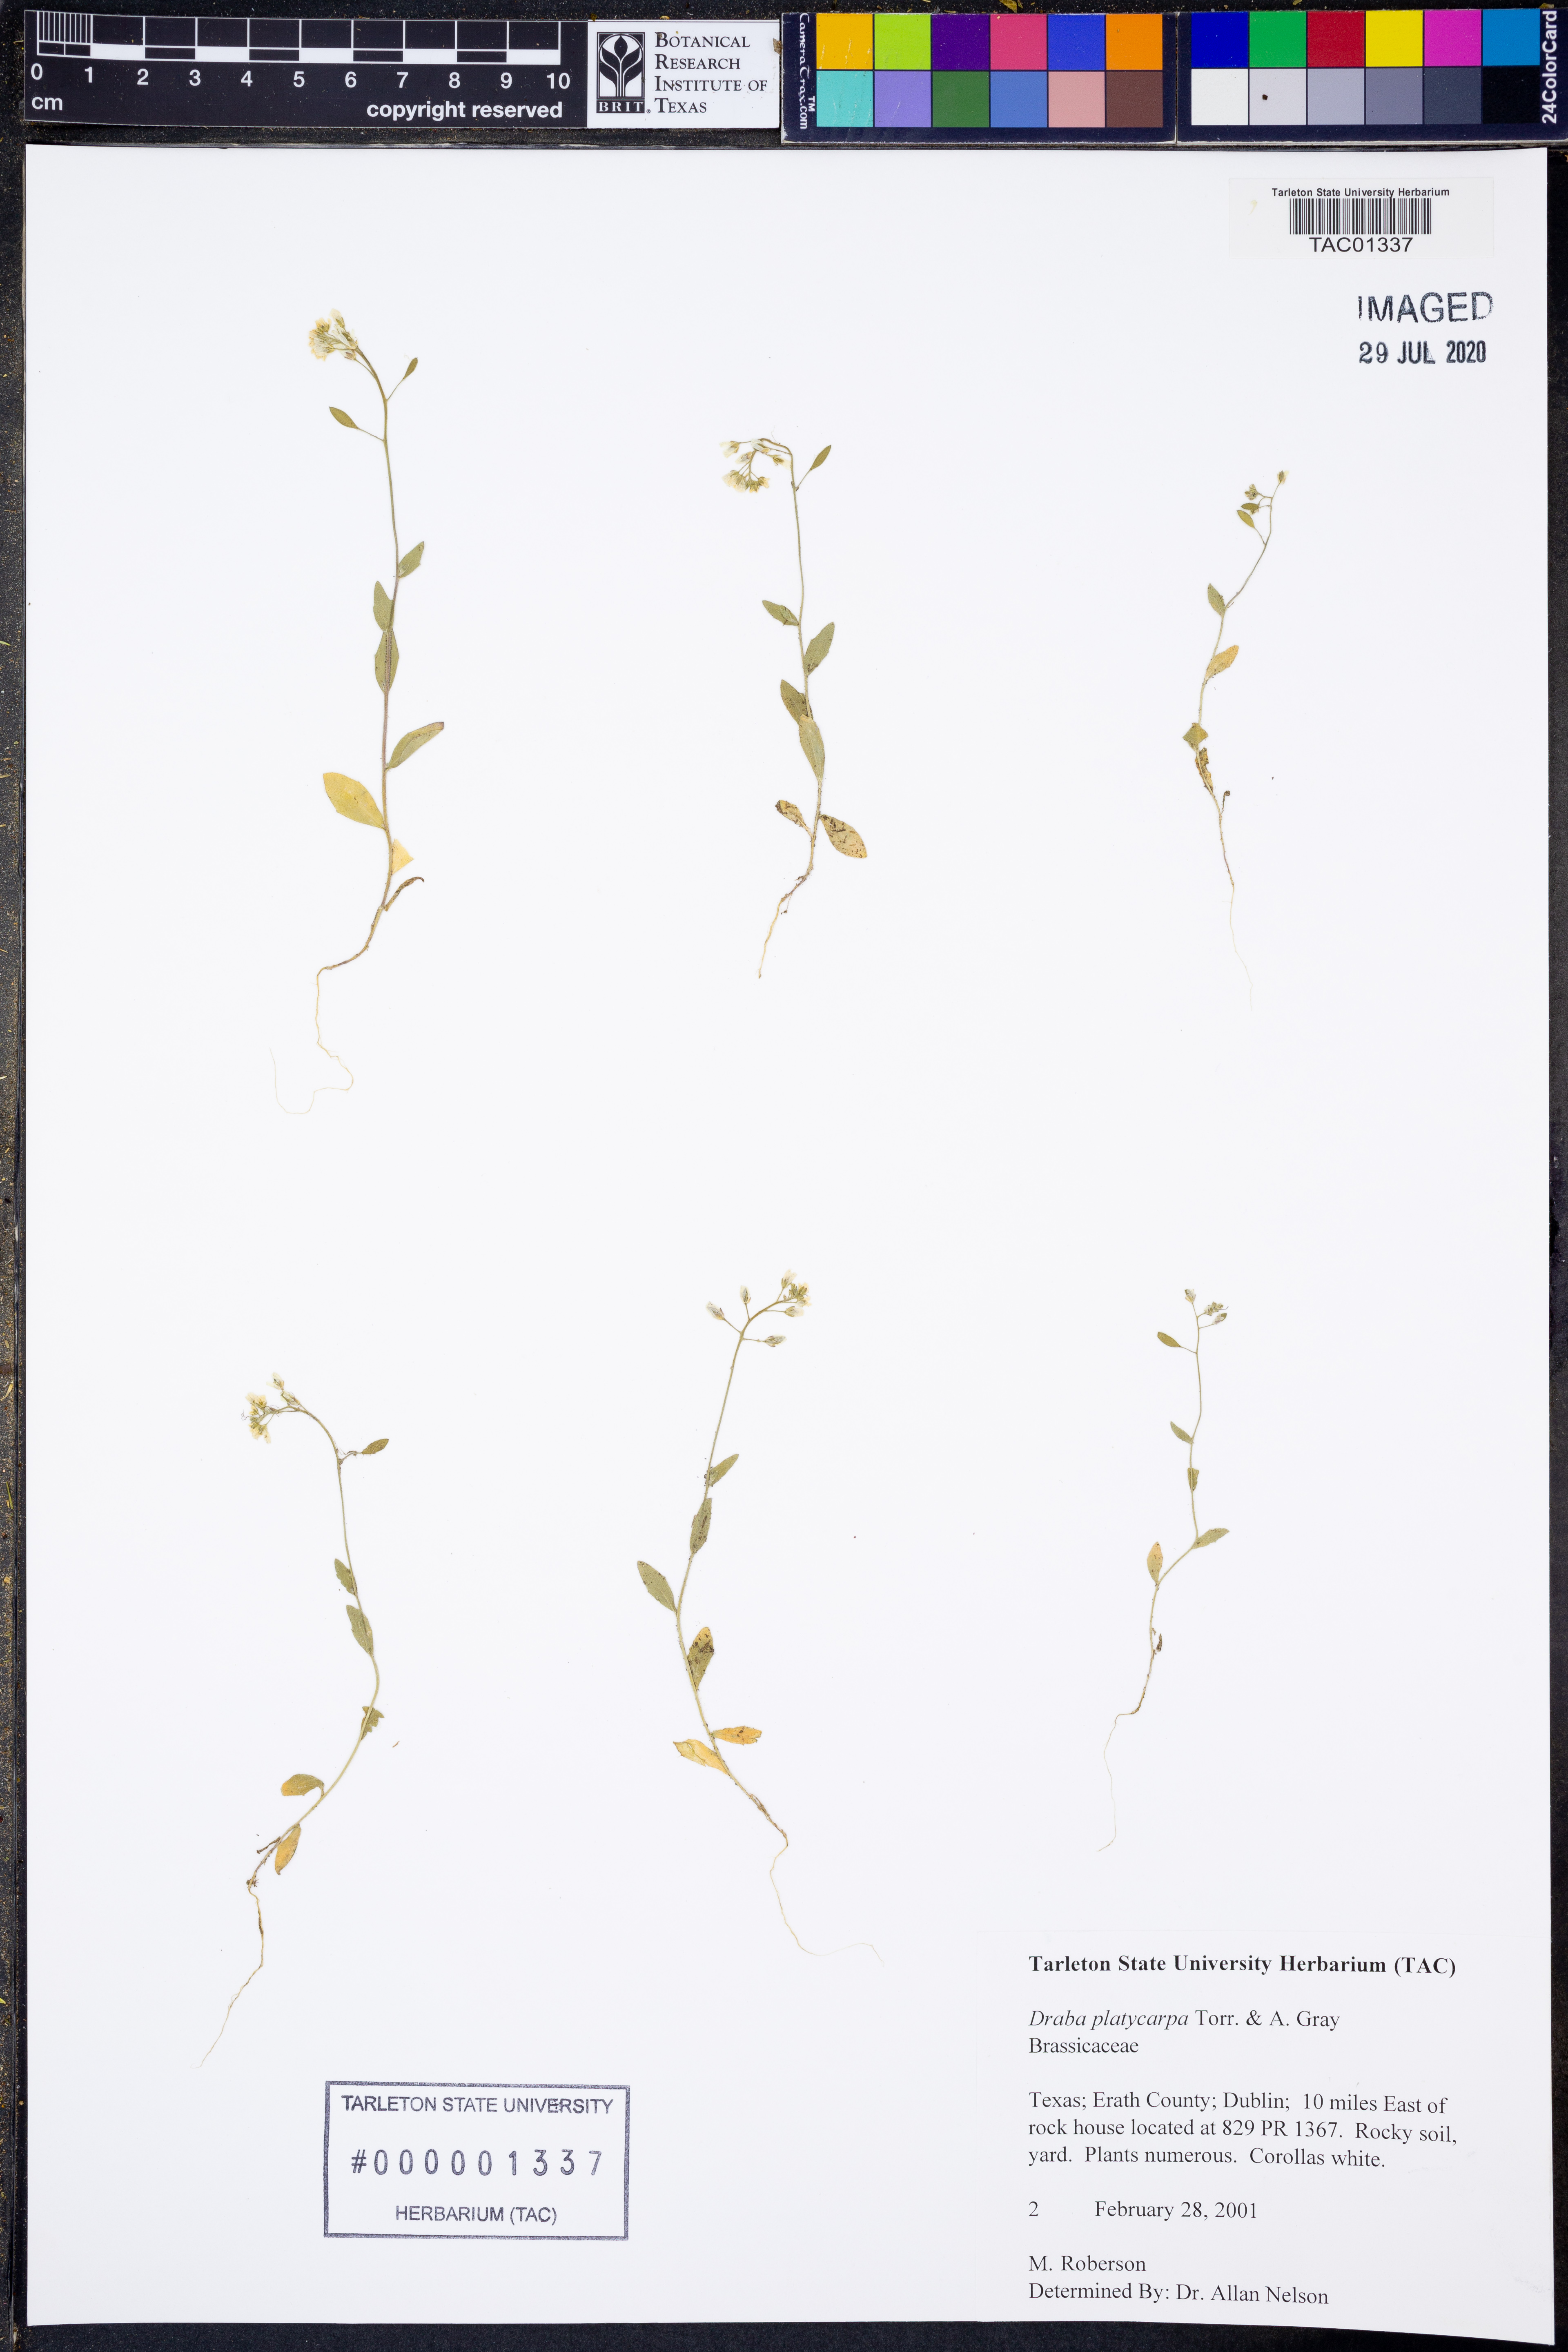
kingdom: Plantae
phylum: Tracheophyta
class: Magnoliopsida
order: Brassicales
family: Brassicaceae
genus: Tomostima
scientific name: Tomostima platycarpa
